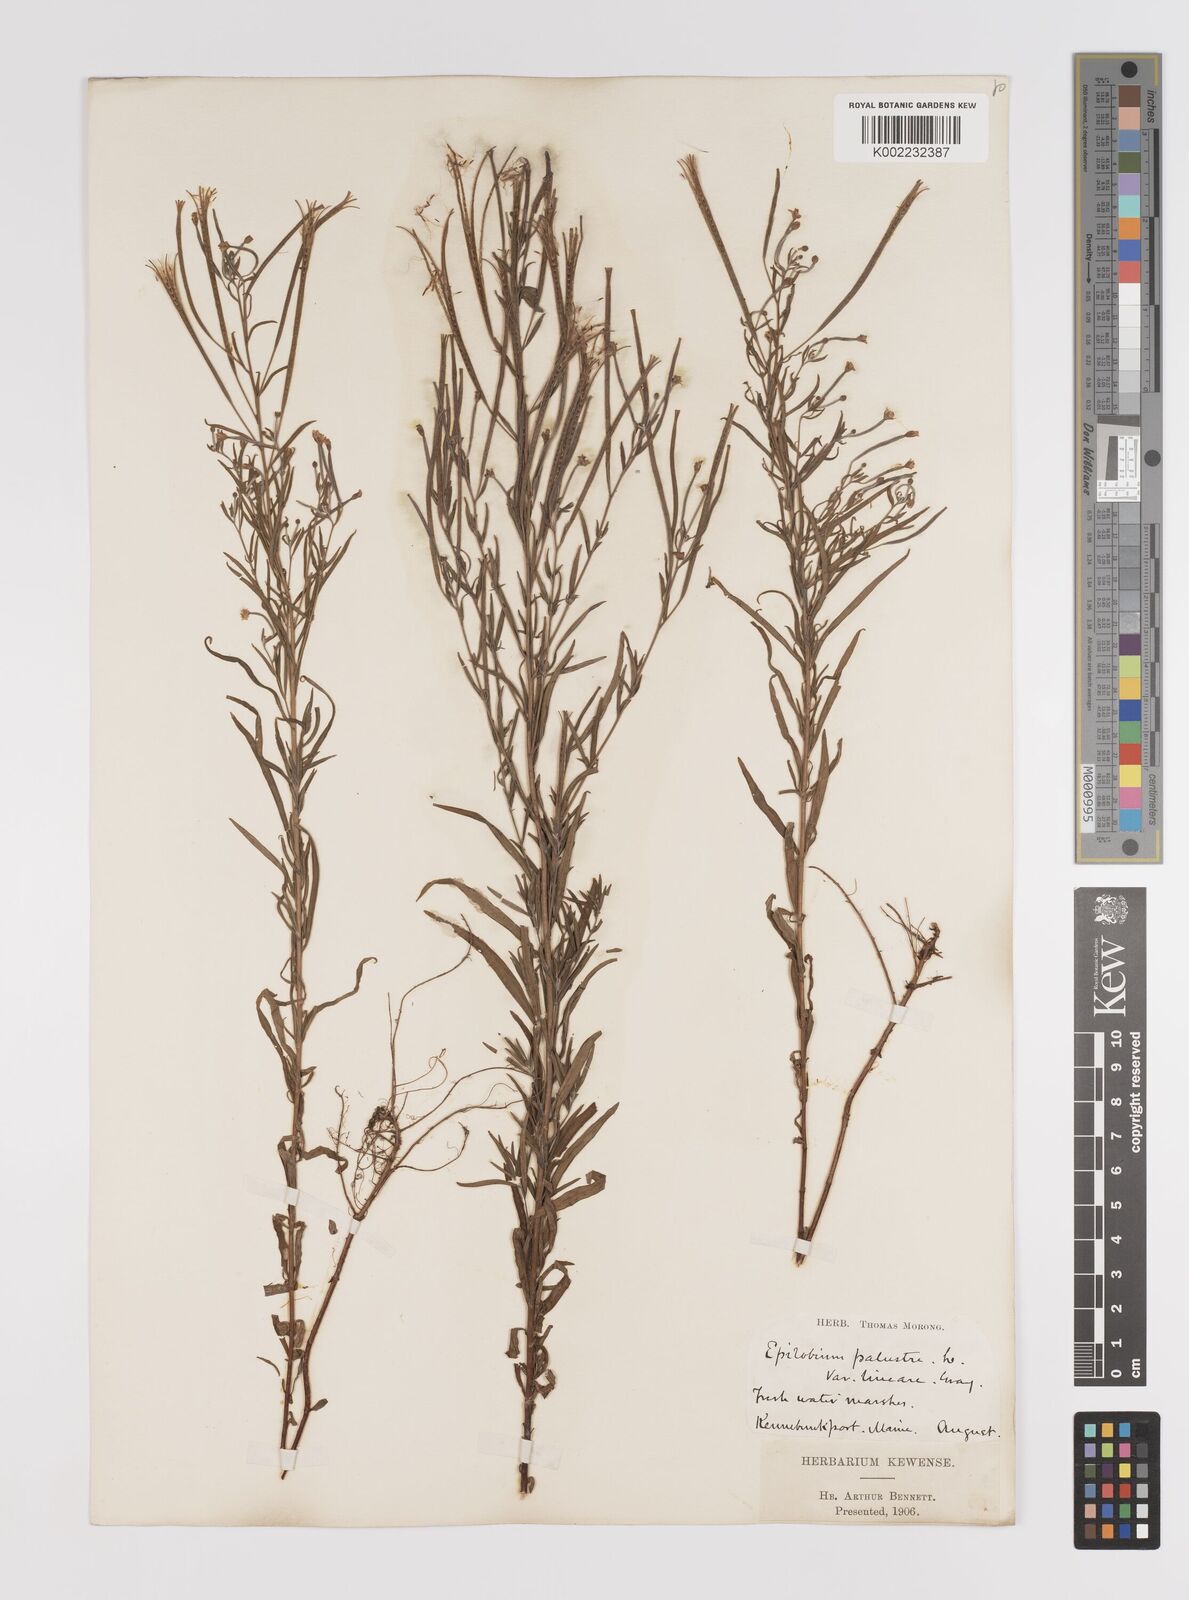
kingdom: Plantae
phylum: Tracheophyta
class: Magnoliopsida
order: Myrtales
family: Onagraceae
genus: Epilobium
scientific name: Epilobium palustre
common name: Marsh willowherb
